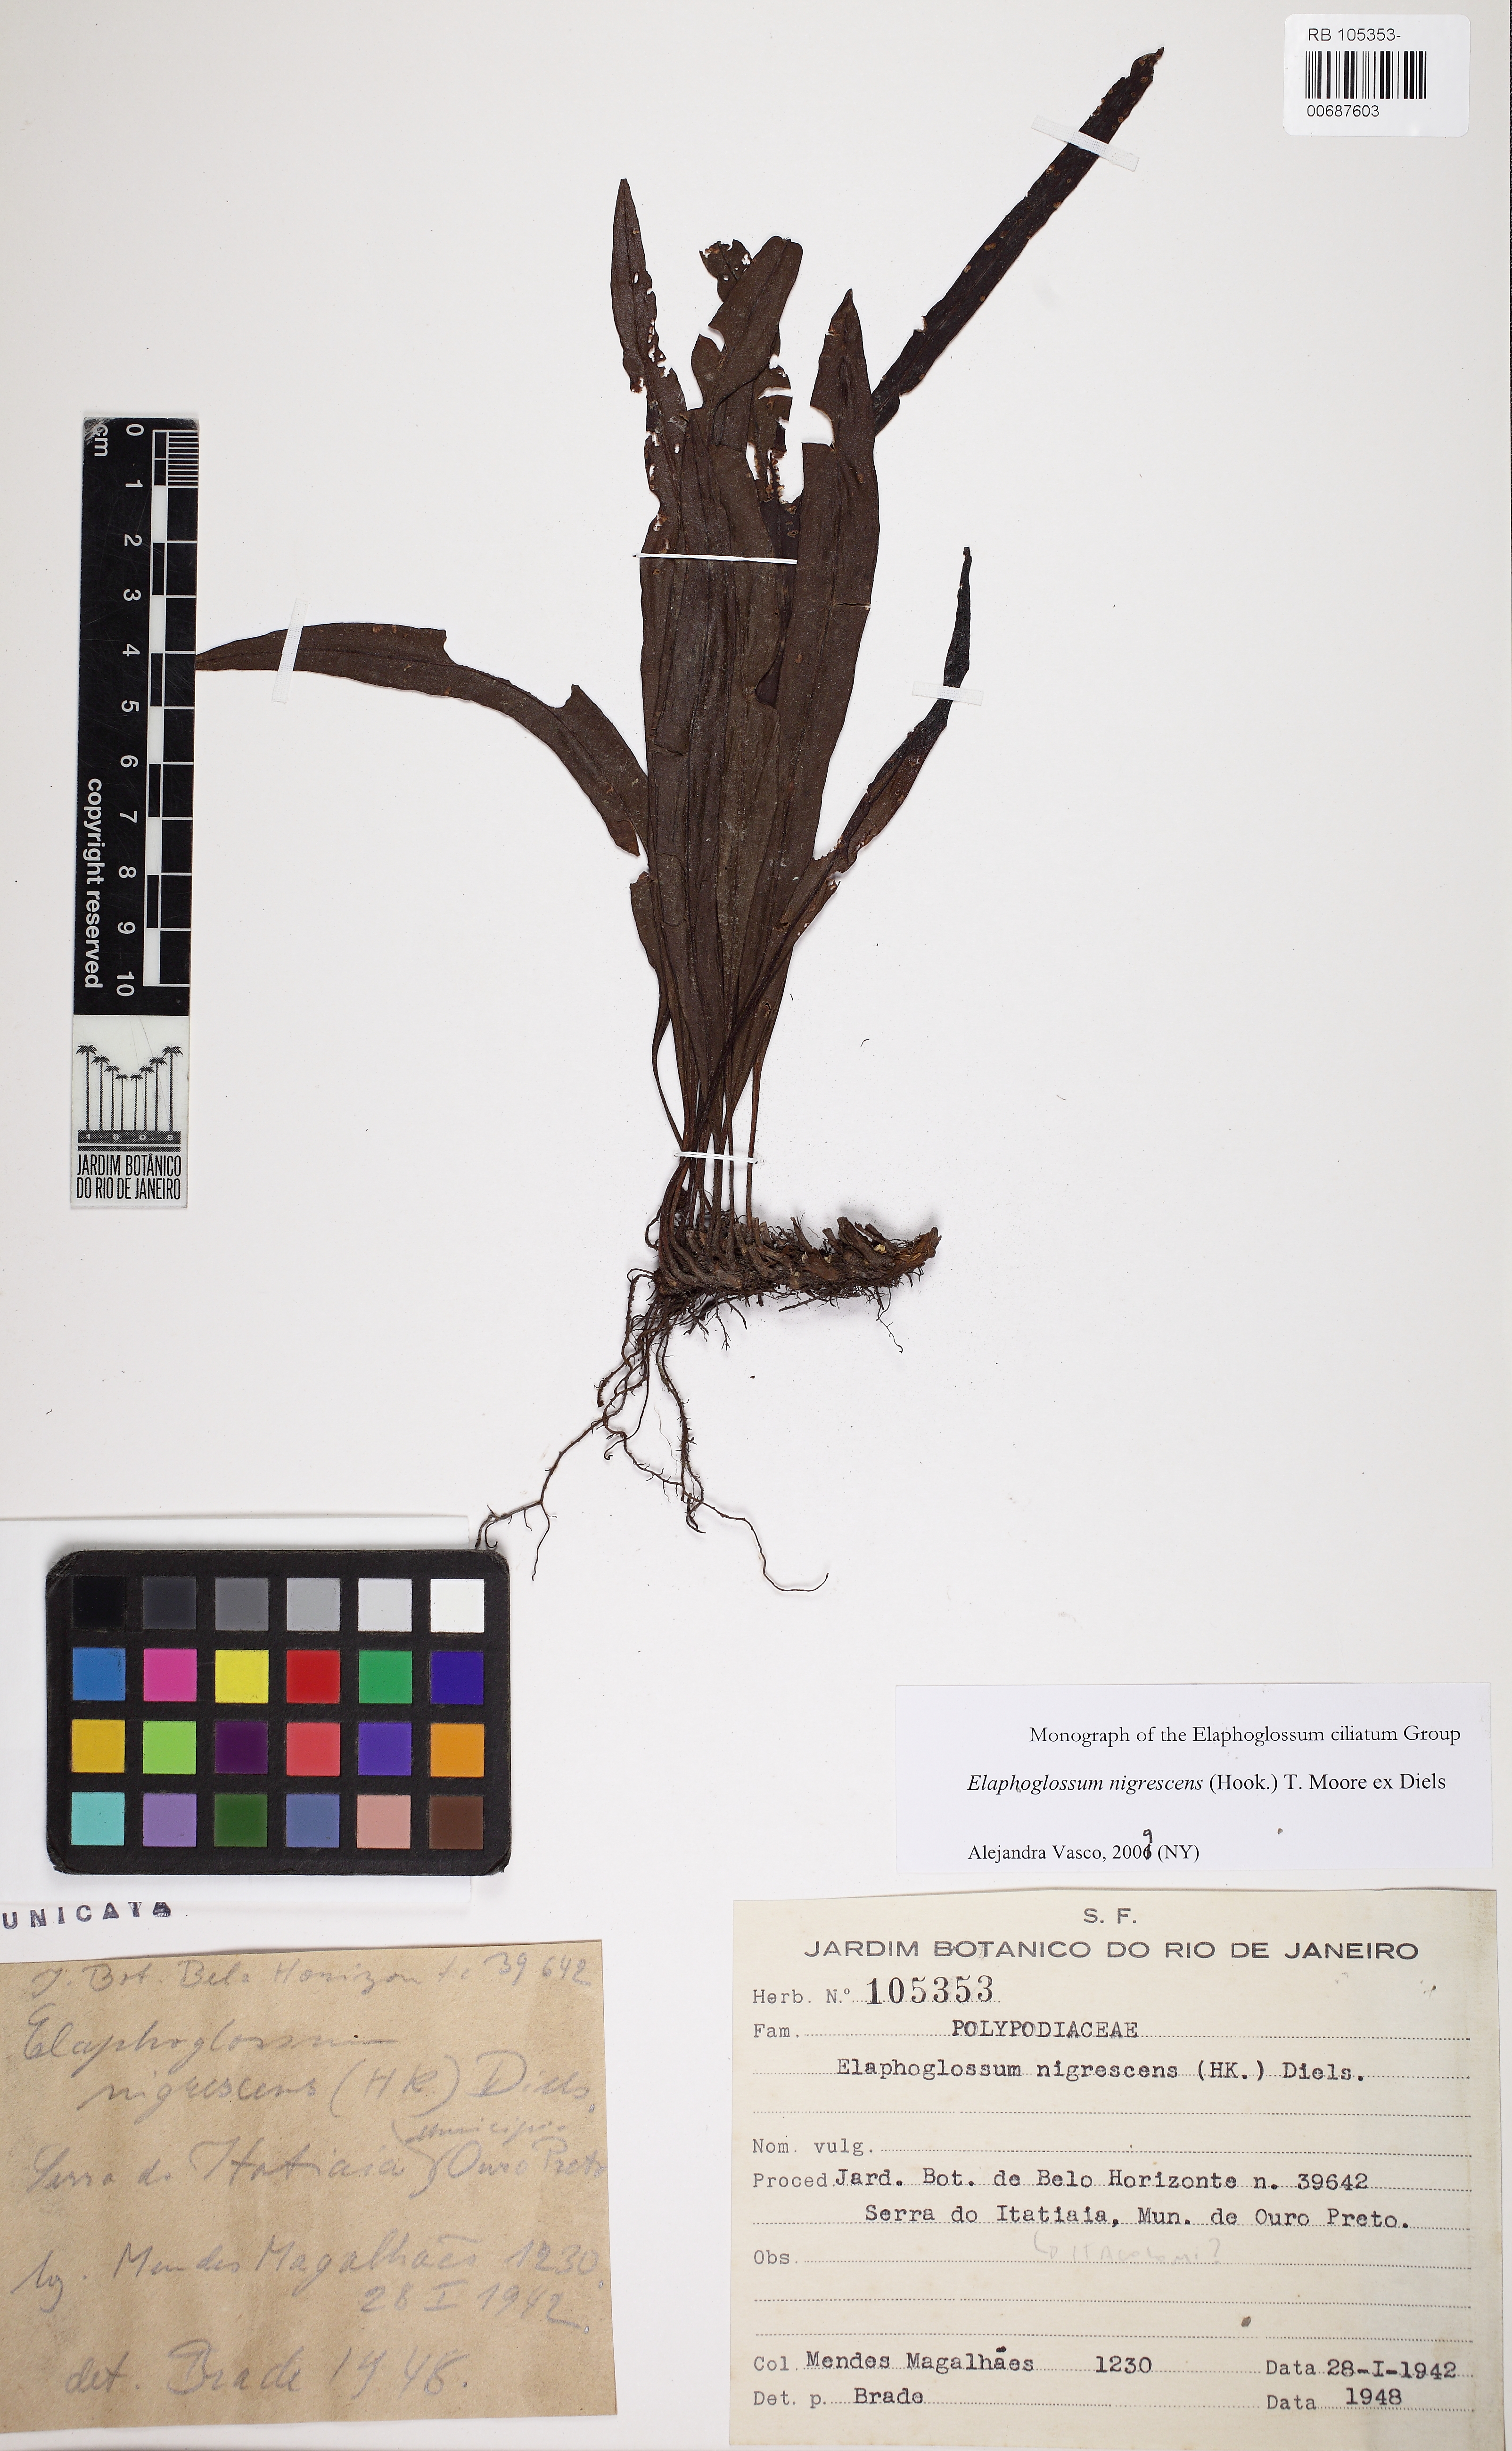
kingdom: Plantae
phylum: Tracheophyta
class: Polypodiopsida
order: Polypodiales
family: Dryopteridaceae
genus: Elaphoglossum
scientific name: Elaphoglossum nigrescens
